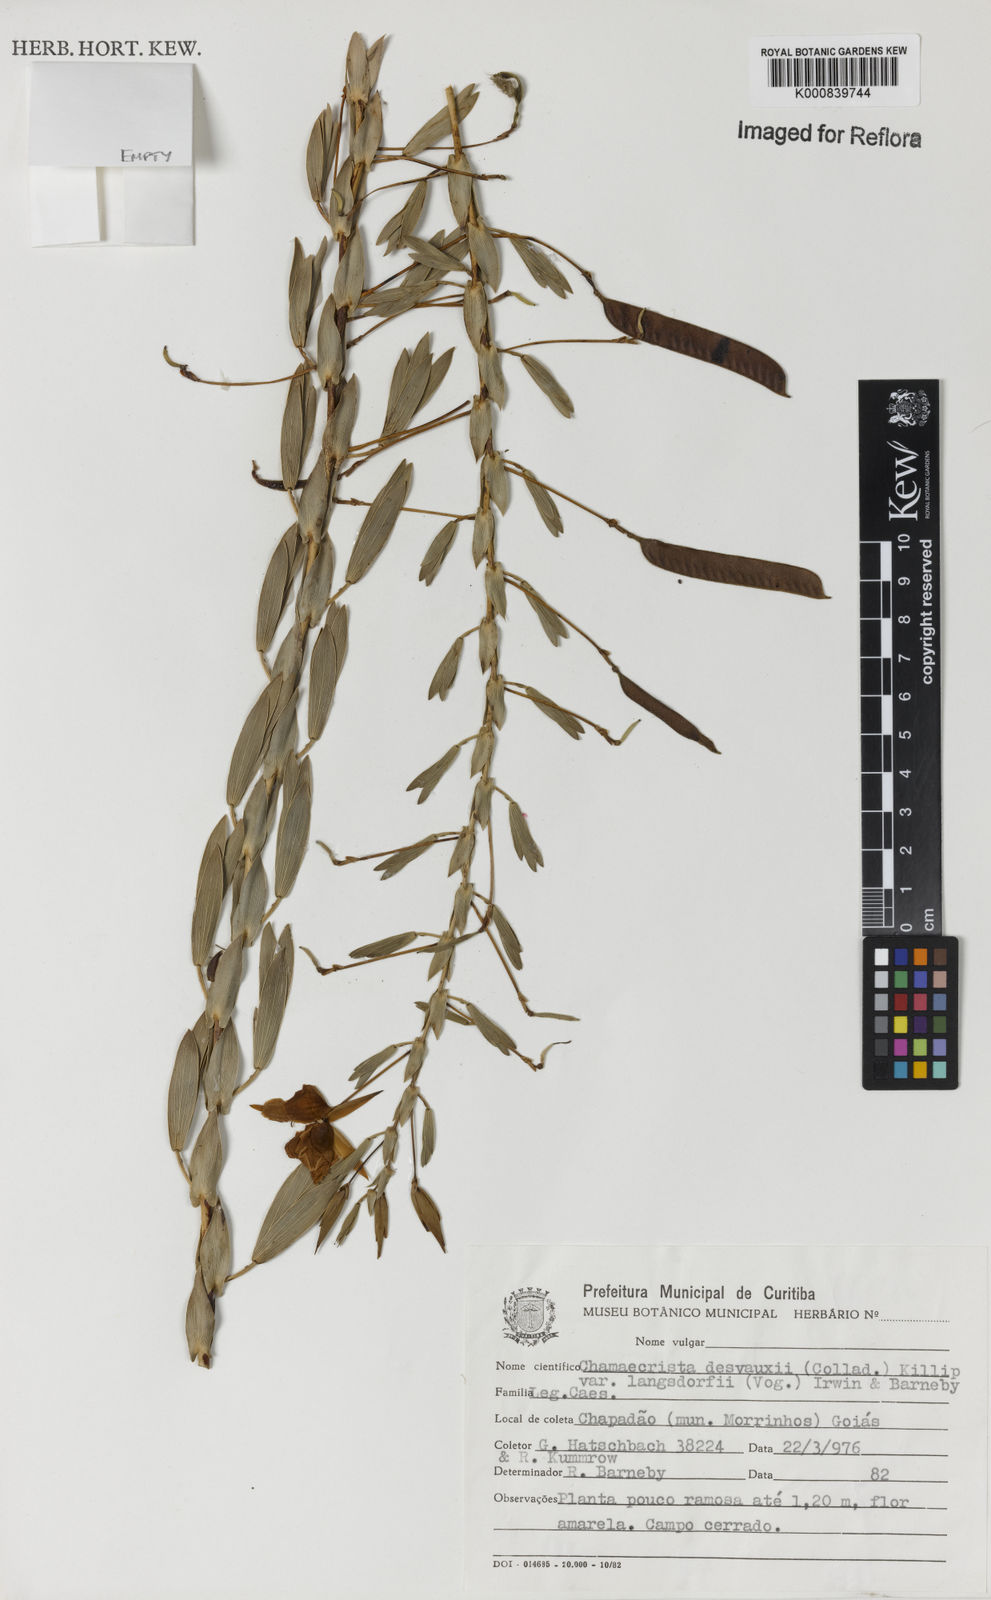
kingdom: Plantae
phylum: Tracheophyta
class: Magnoliopsida
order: Fabales
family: Fabaceae
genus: Chamaecrista
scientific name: Chamaecrista langsdorffii
